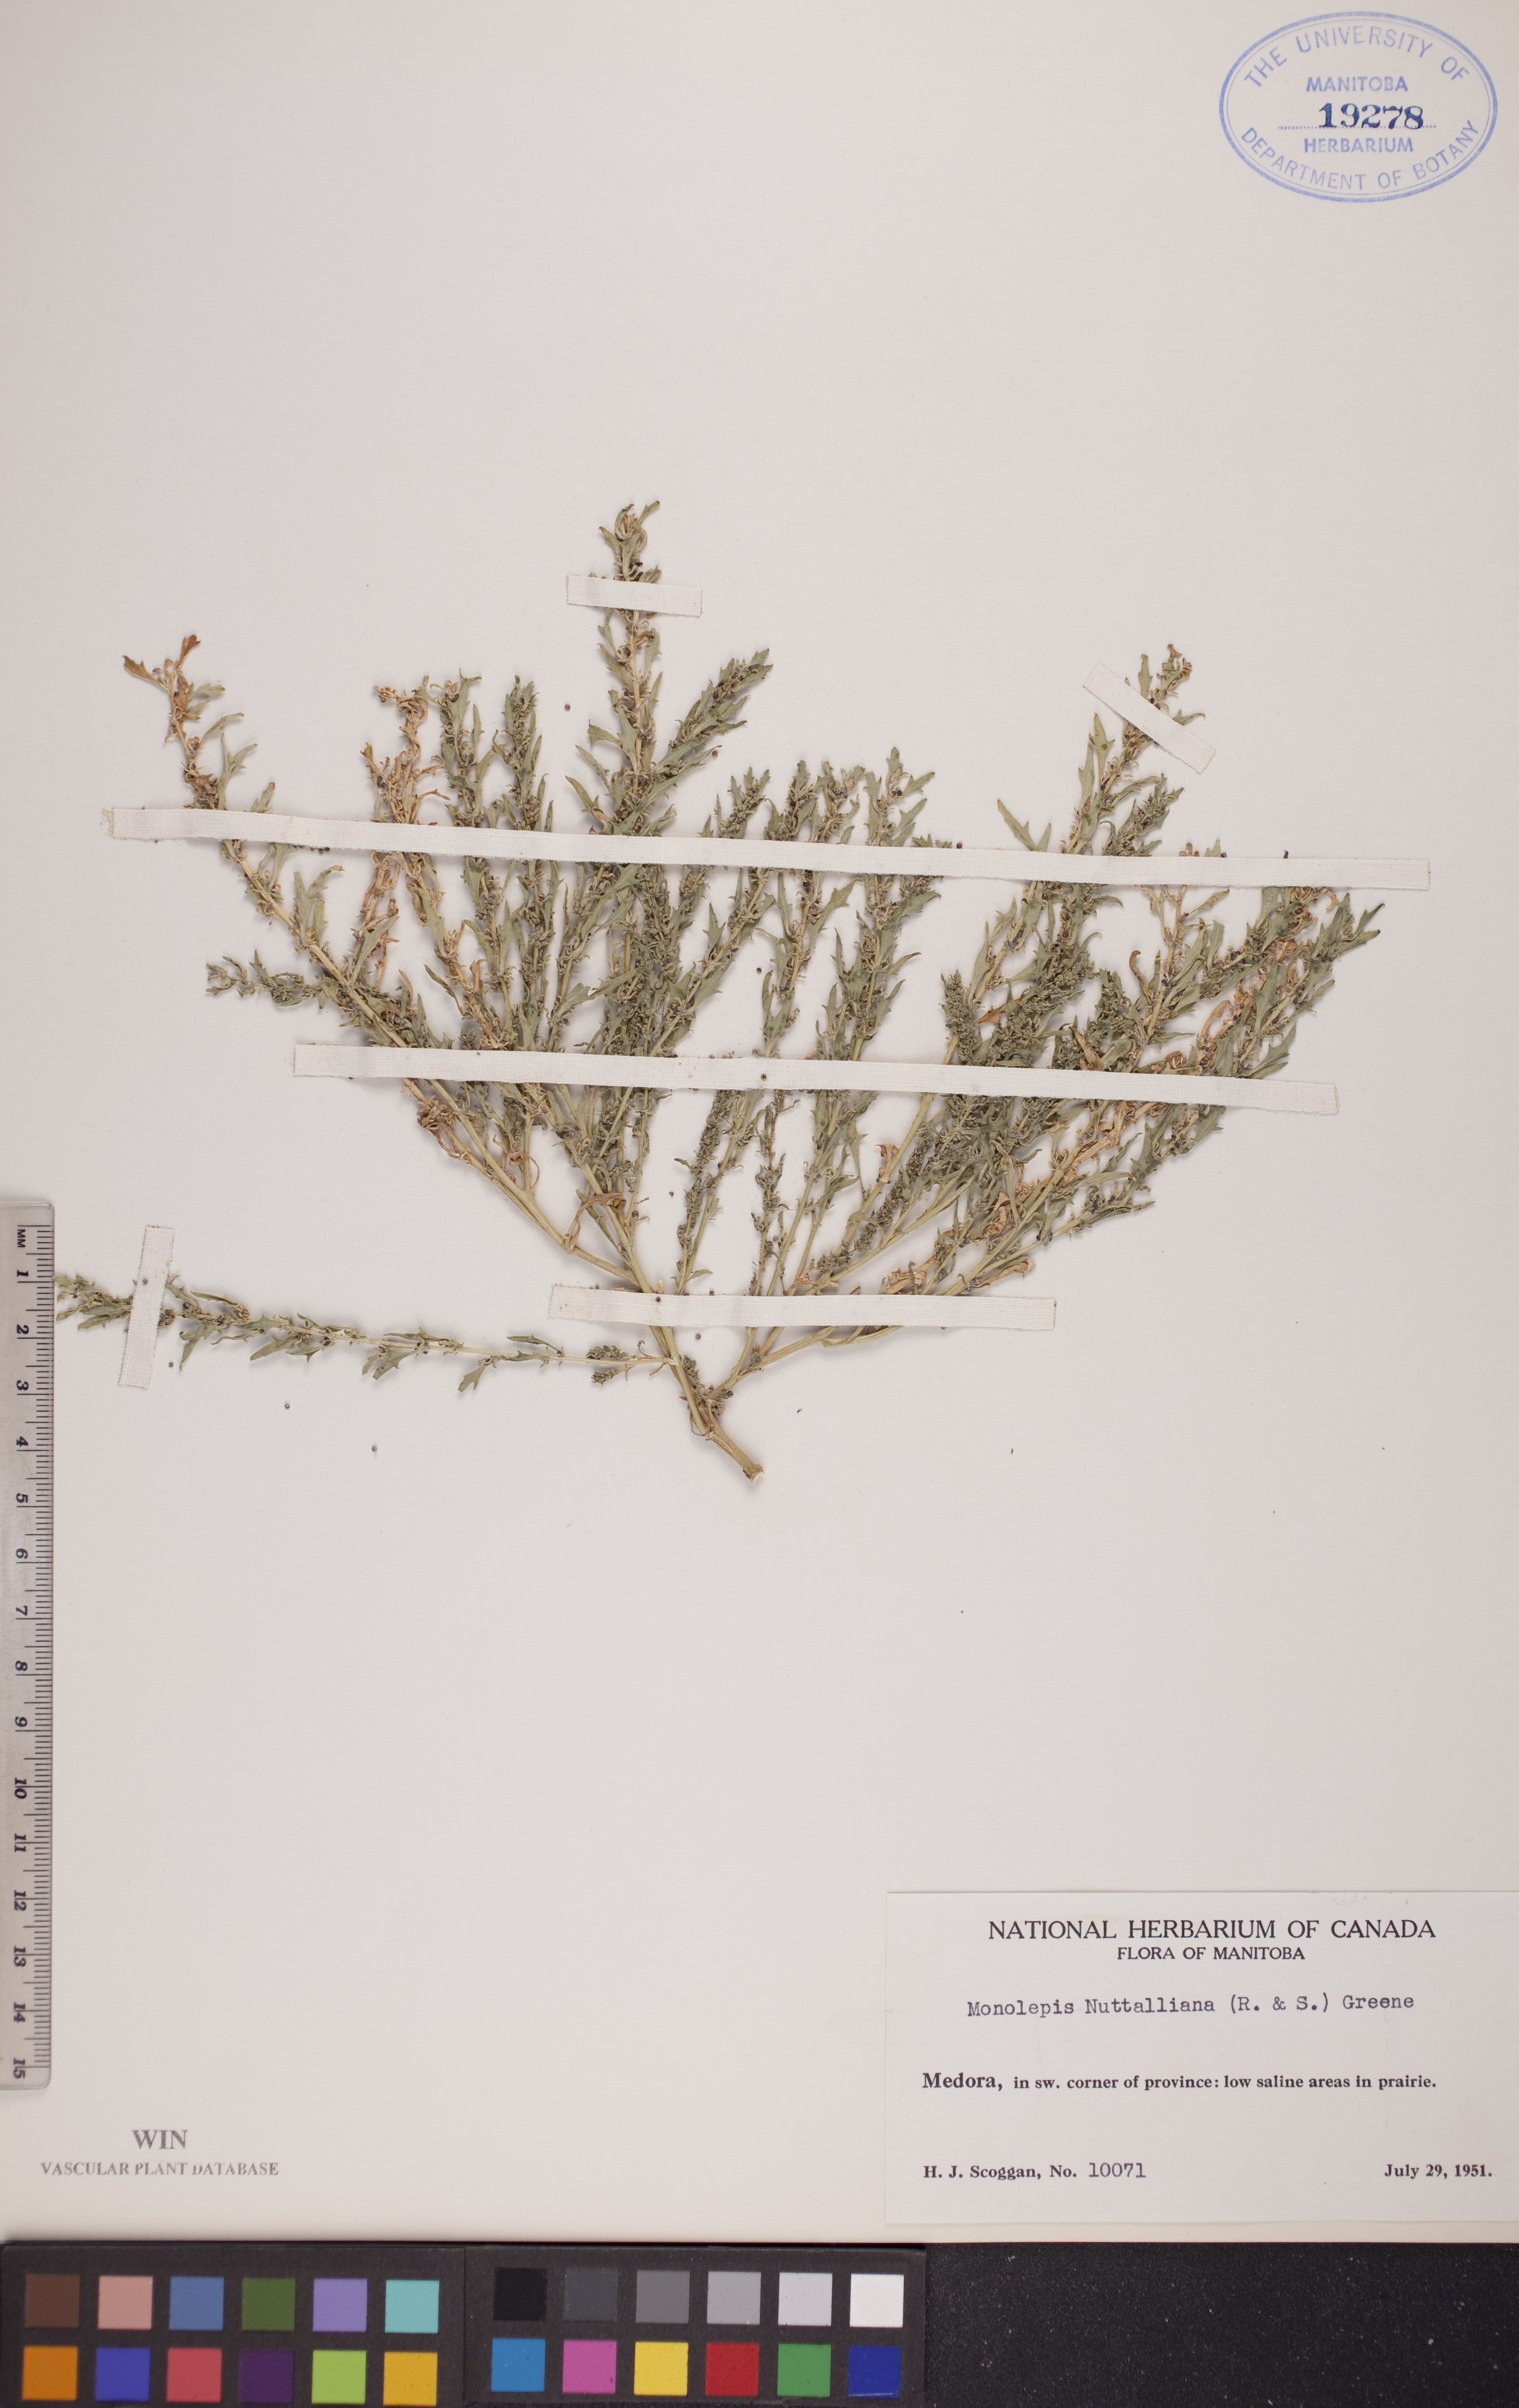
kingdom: Plantae
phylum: Tracheophyta
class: Magnoliopsida
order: Caryophyllales
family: Amaranthaceae
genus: Blitum
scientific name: Blitum nuttallianum
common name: Poverty-weed
